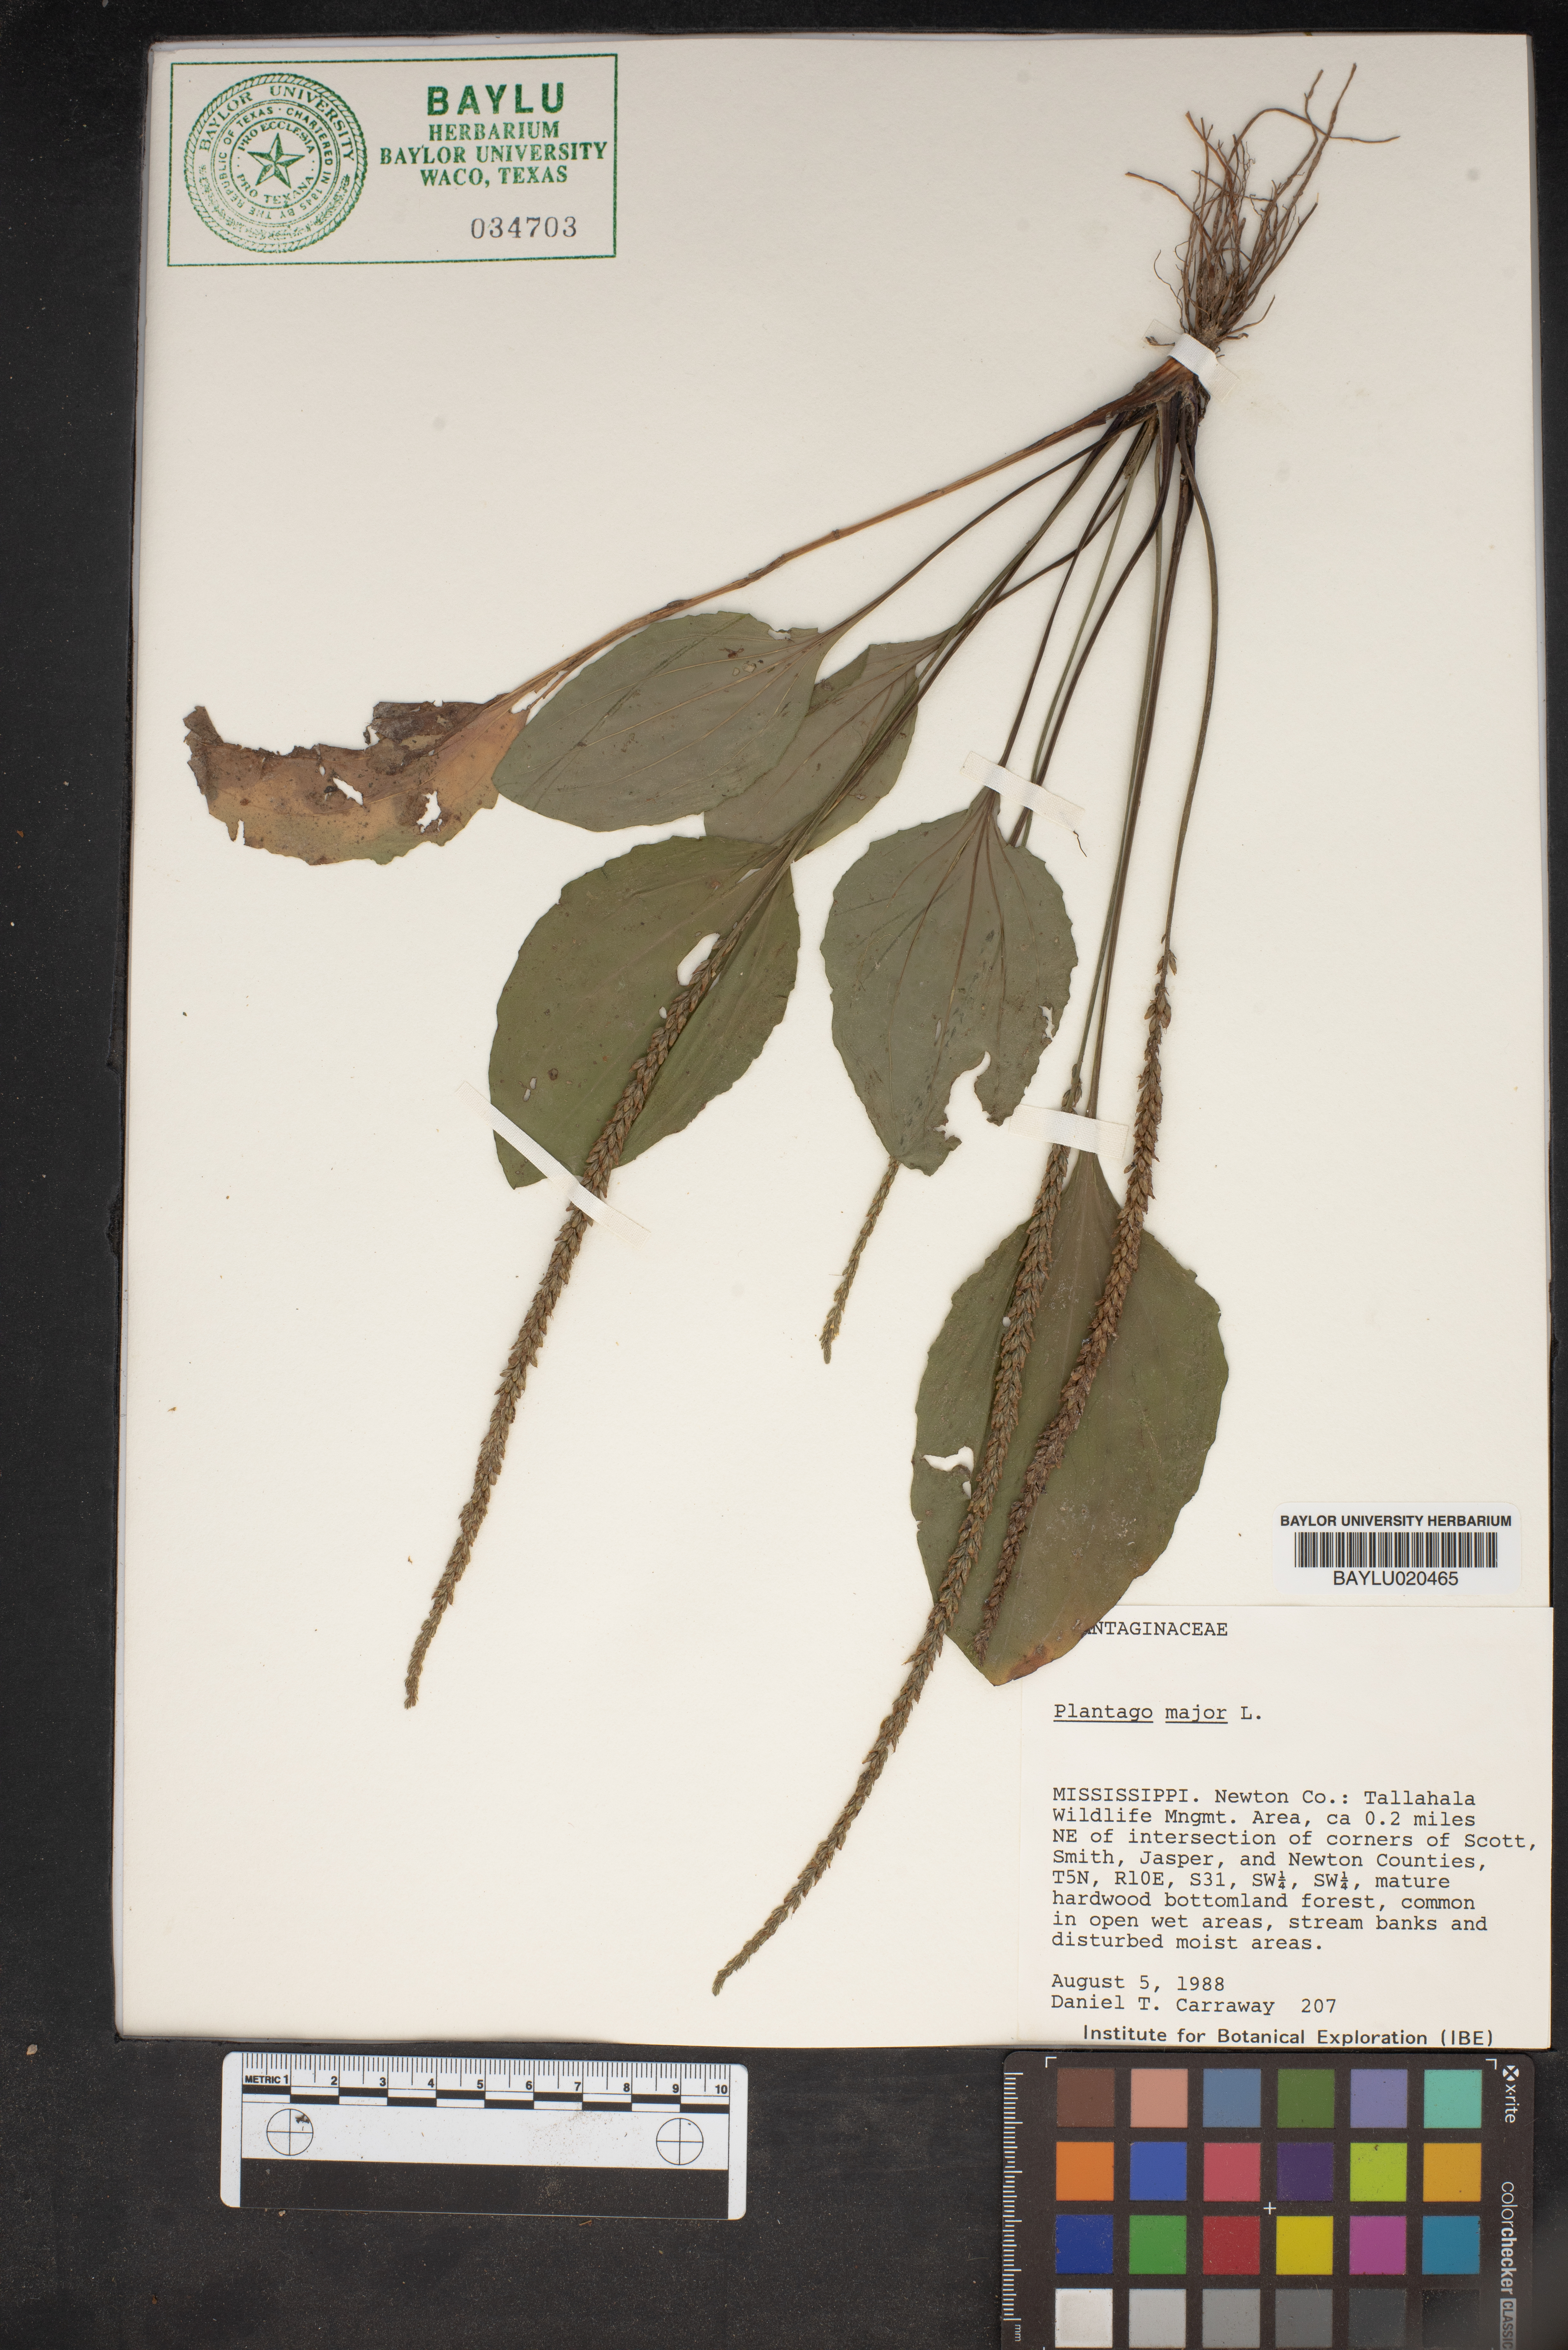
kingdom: Plantae
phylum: Tracheophyta
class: Magnoliopsida
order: Lamiales
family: Plantaginaceae
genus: Plantago
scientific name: Plantago major
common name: Common plantain
